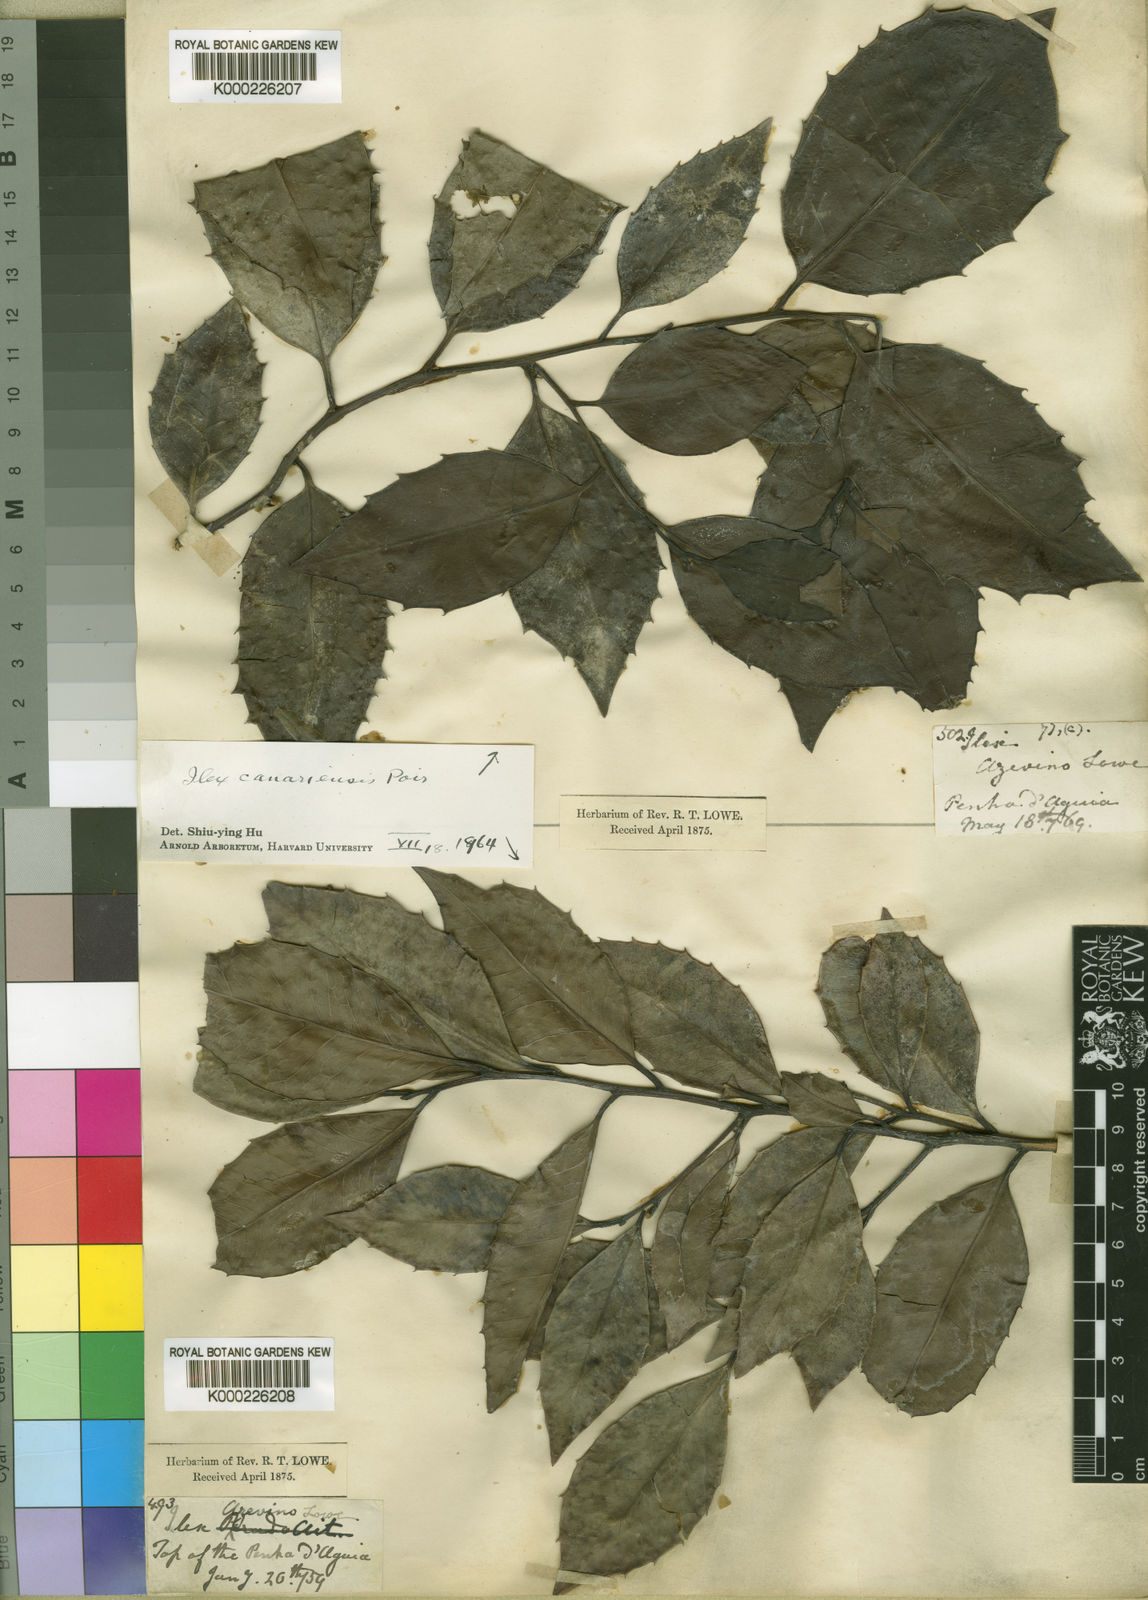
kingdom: Plantae
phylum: Tracheophyta
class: Magnoliopsida
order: Aquifoliales
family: Aquifoliaceae
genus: Ilex
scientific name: Ilex canariensis
